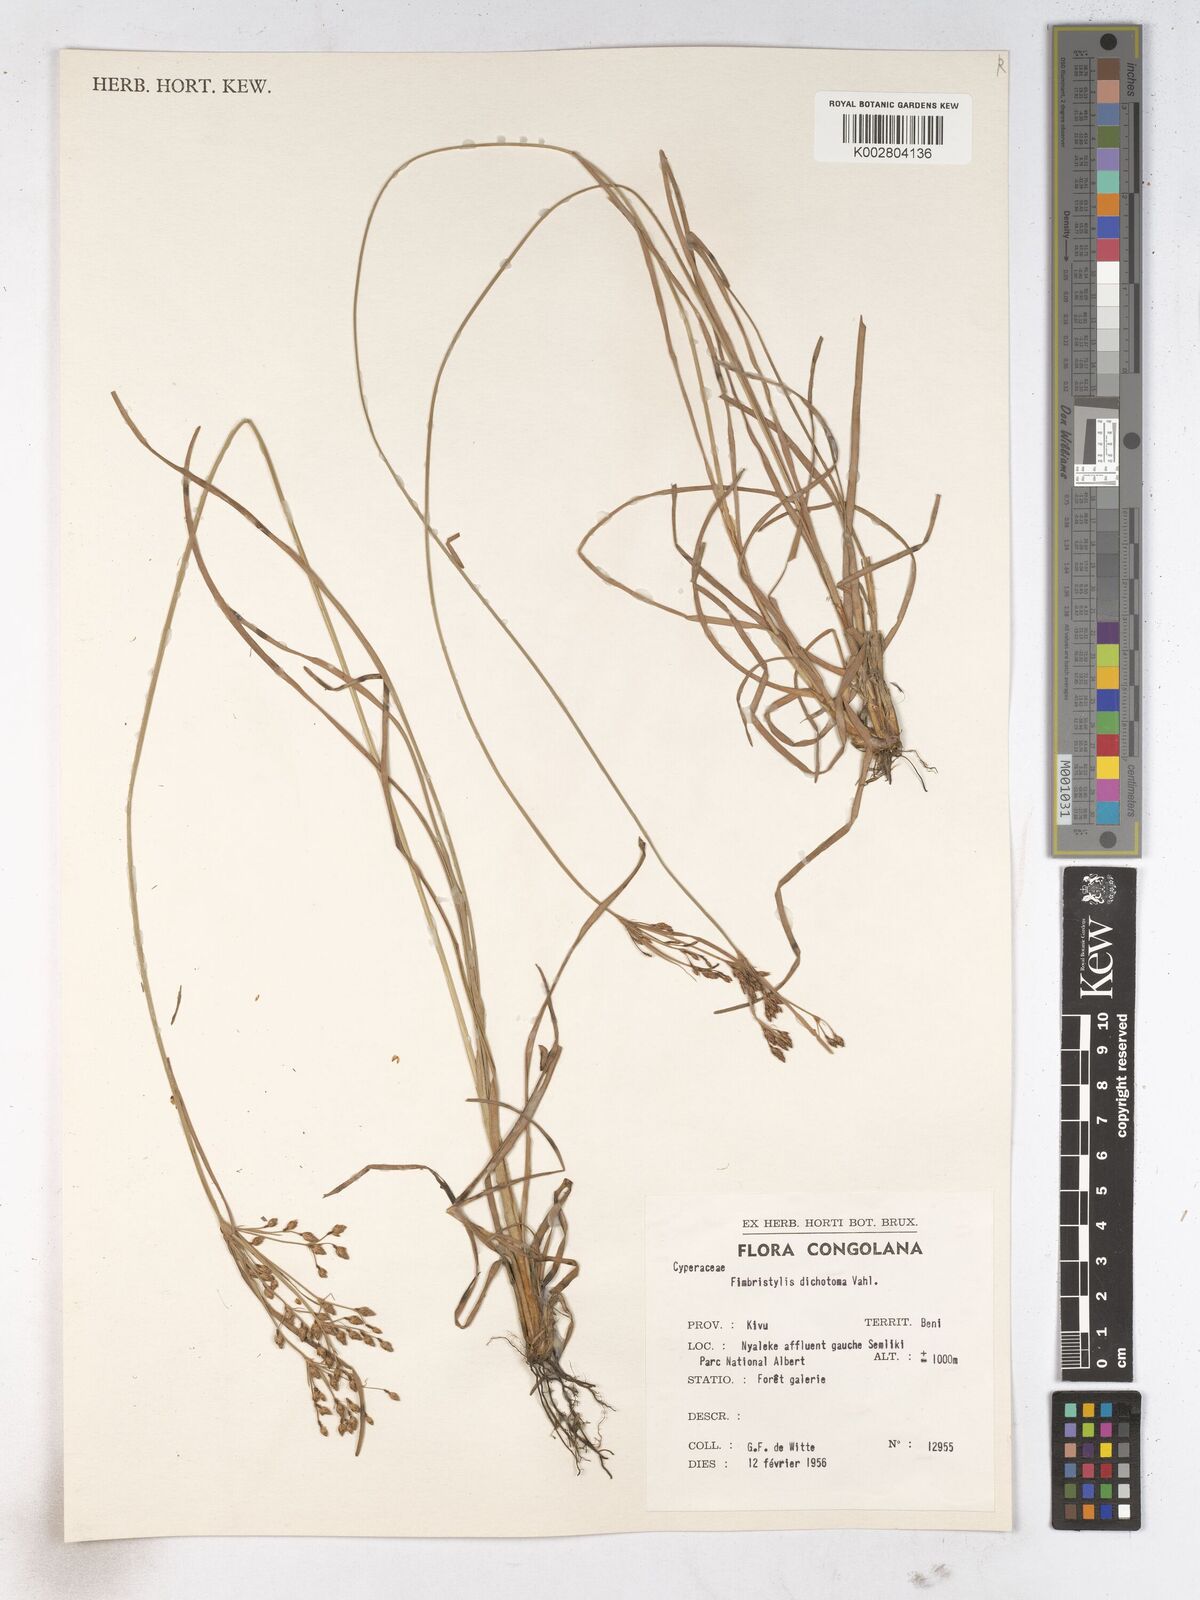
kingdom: Plantae
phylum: Tracheophyta
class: Liliopsida
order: Poales
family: Cyperaceae
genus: Fimbristylis
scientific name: Fimbristylis dichotoma
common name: Forked fimbry
